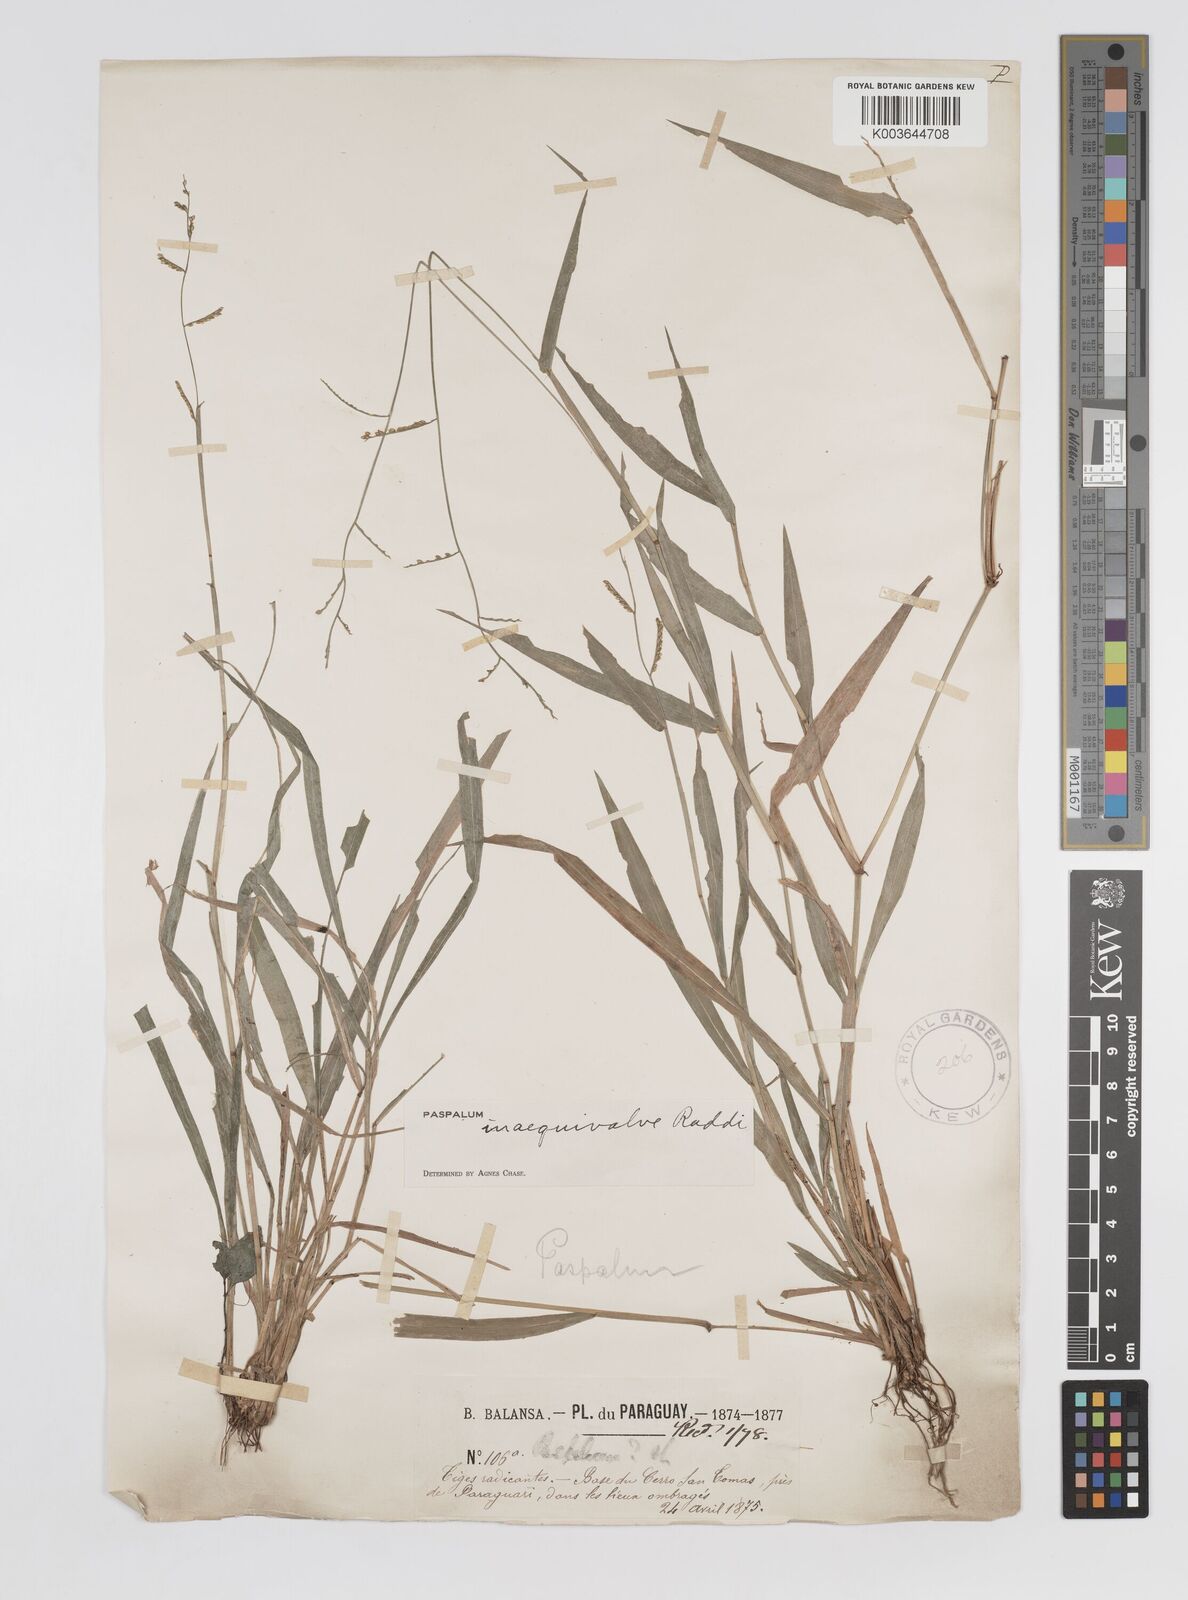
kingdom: Plantae
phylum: Tracheophyta
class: Liliopsida
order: Poales
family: Poaceae
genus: Paspalum
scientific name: Paspalum inaequivalve
